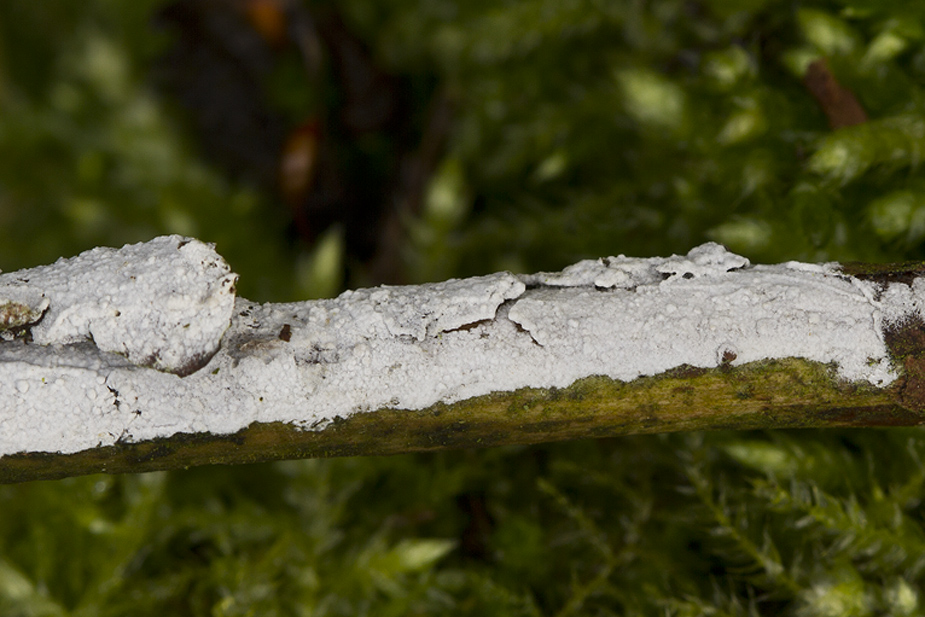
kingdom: Fungi
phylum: Basidiomycota
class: Agaricomycetes
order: Corticiales
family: Corticiaceae
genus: Lyomyces
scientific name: Lyomyces sambuci
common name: almindelig hyldehinde
